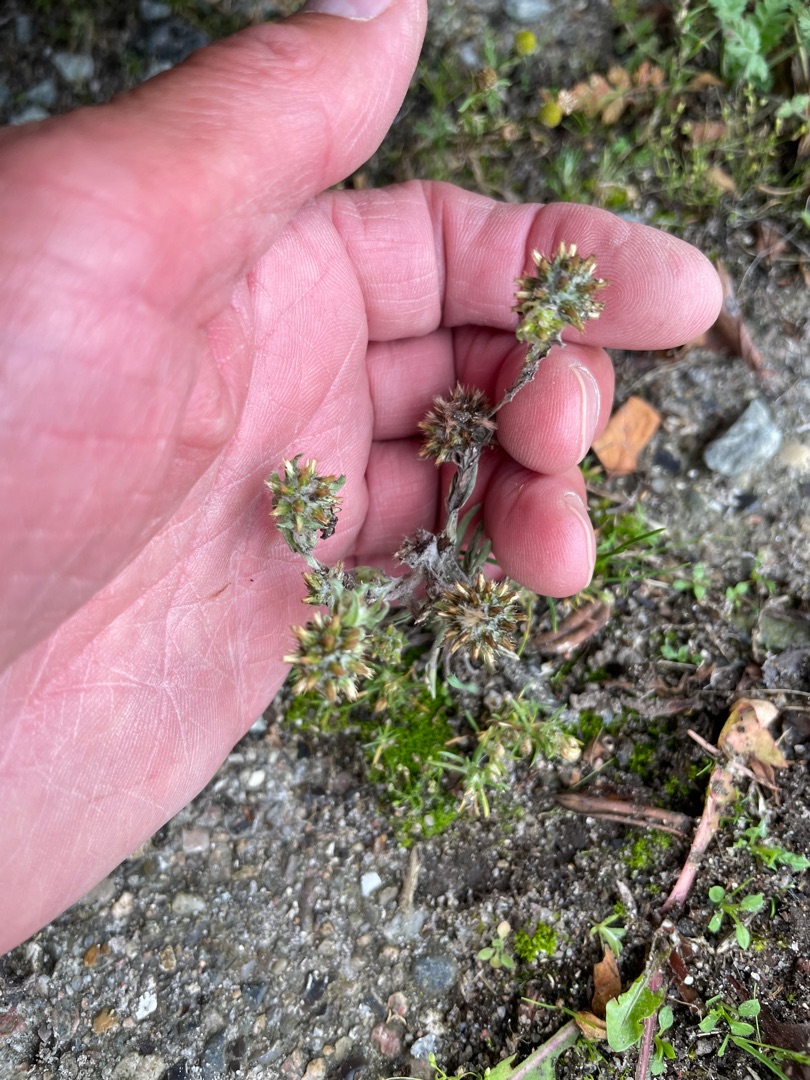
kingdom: Plantae
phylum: Tracheophyta
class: Magnoliopsida
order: Asterales
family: Asteraceae
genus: Filago
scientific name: Filago germanica
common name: Kugle-museurt
